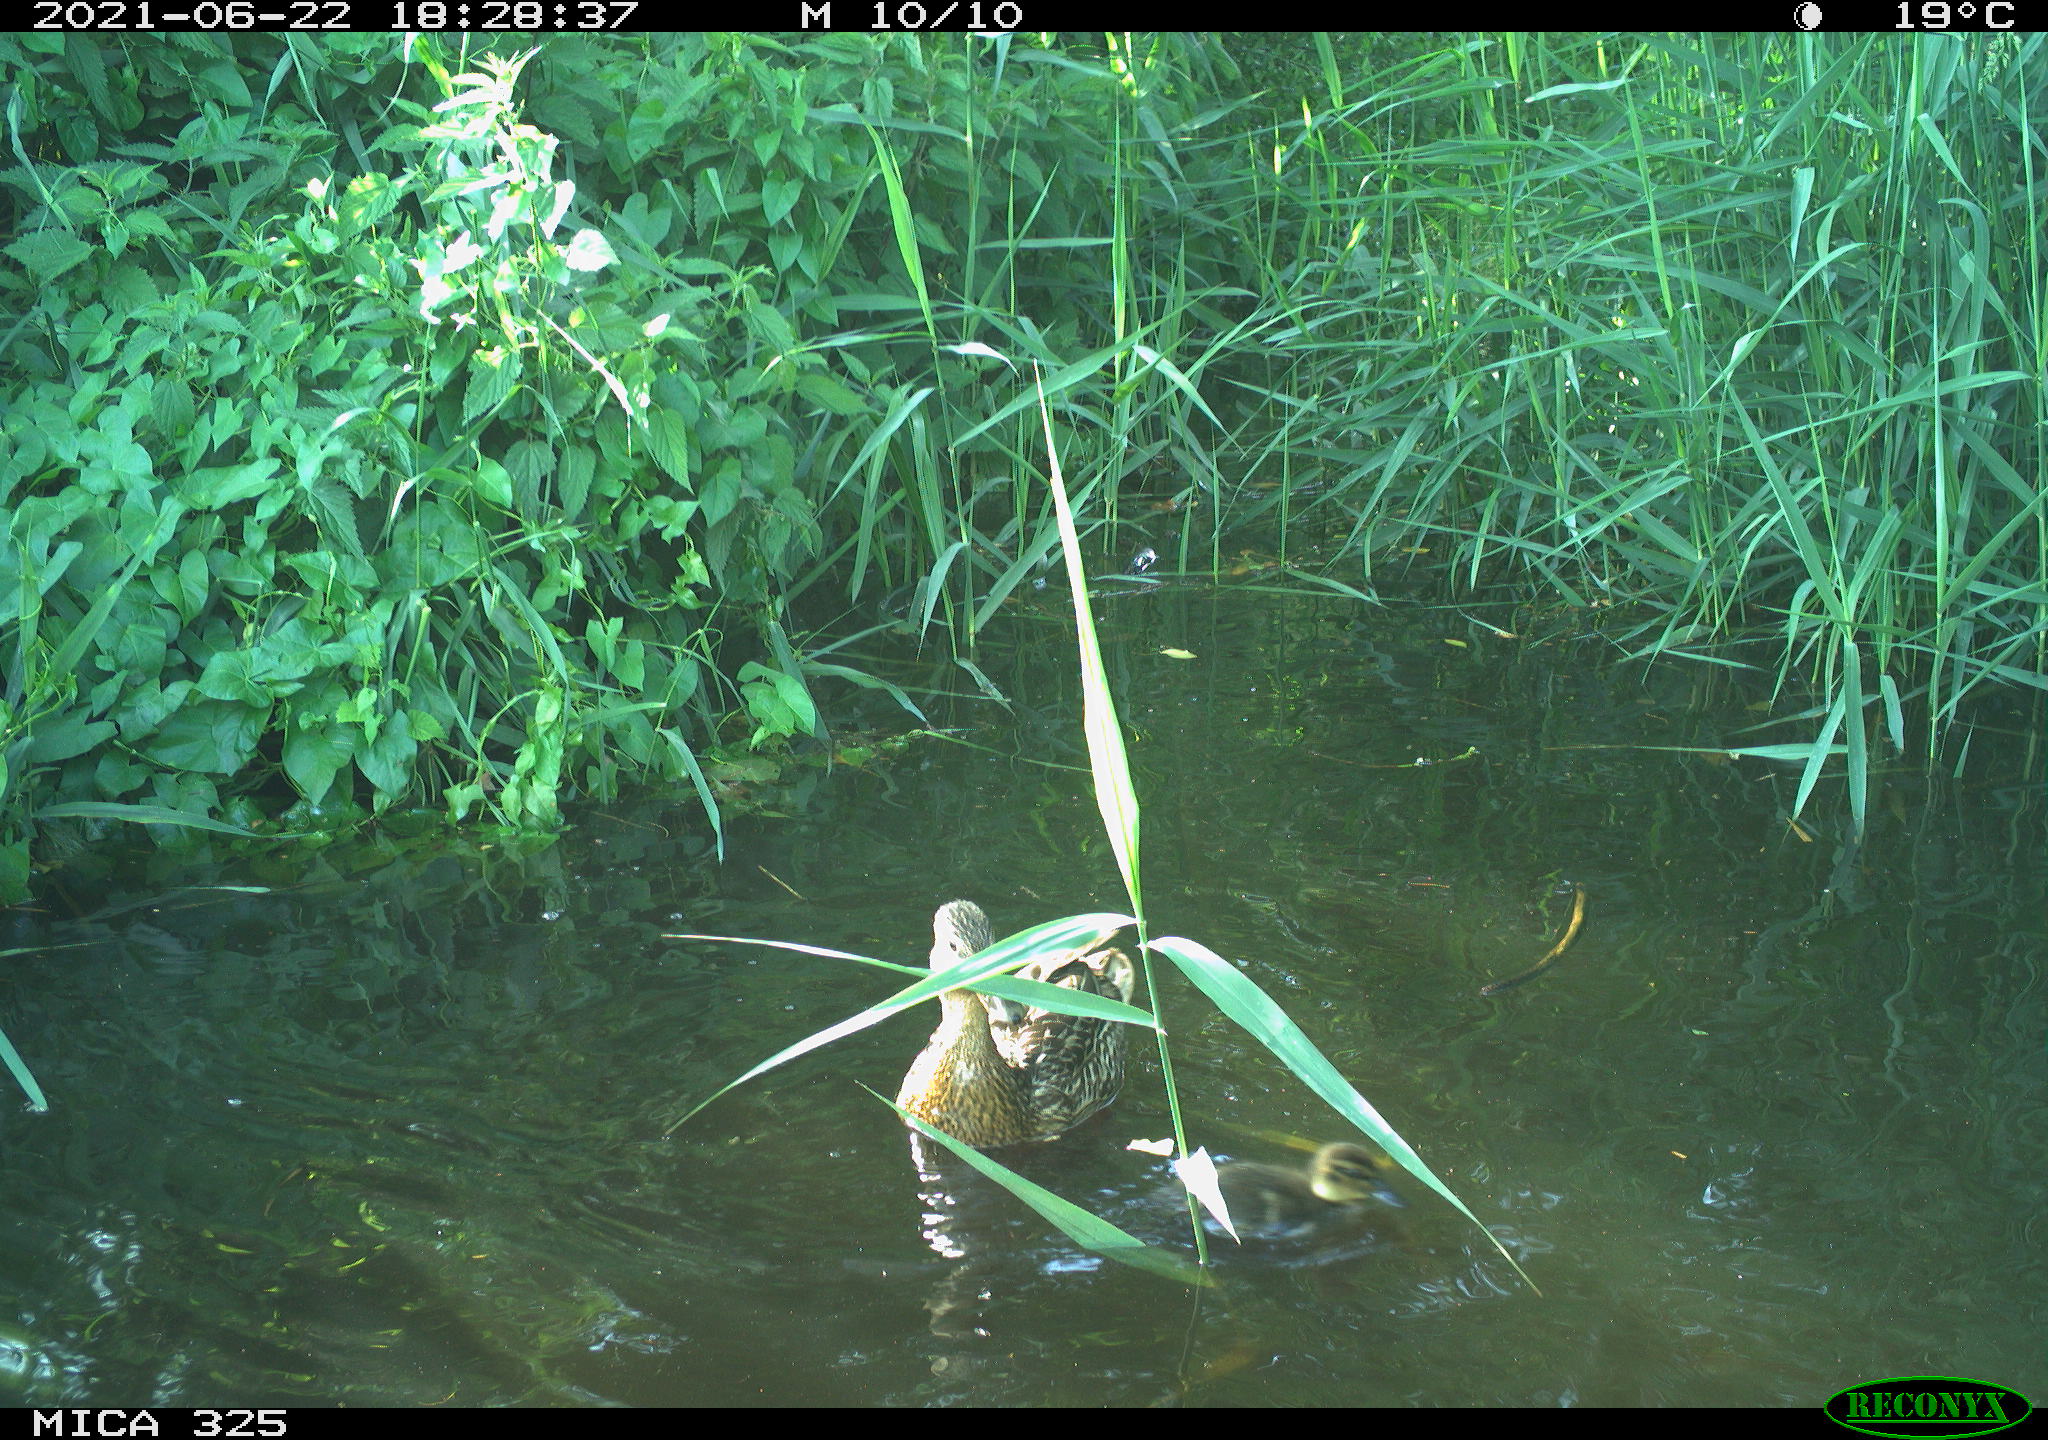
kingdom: Animalia
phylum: Chordata
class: Aves
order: Anseriformes
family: Anatidae
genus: Anas
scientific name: Anas platyrhynchos
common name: Mallard
